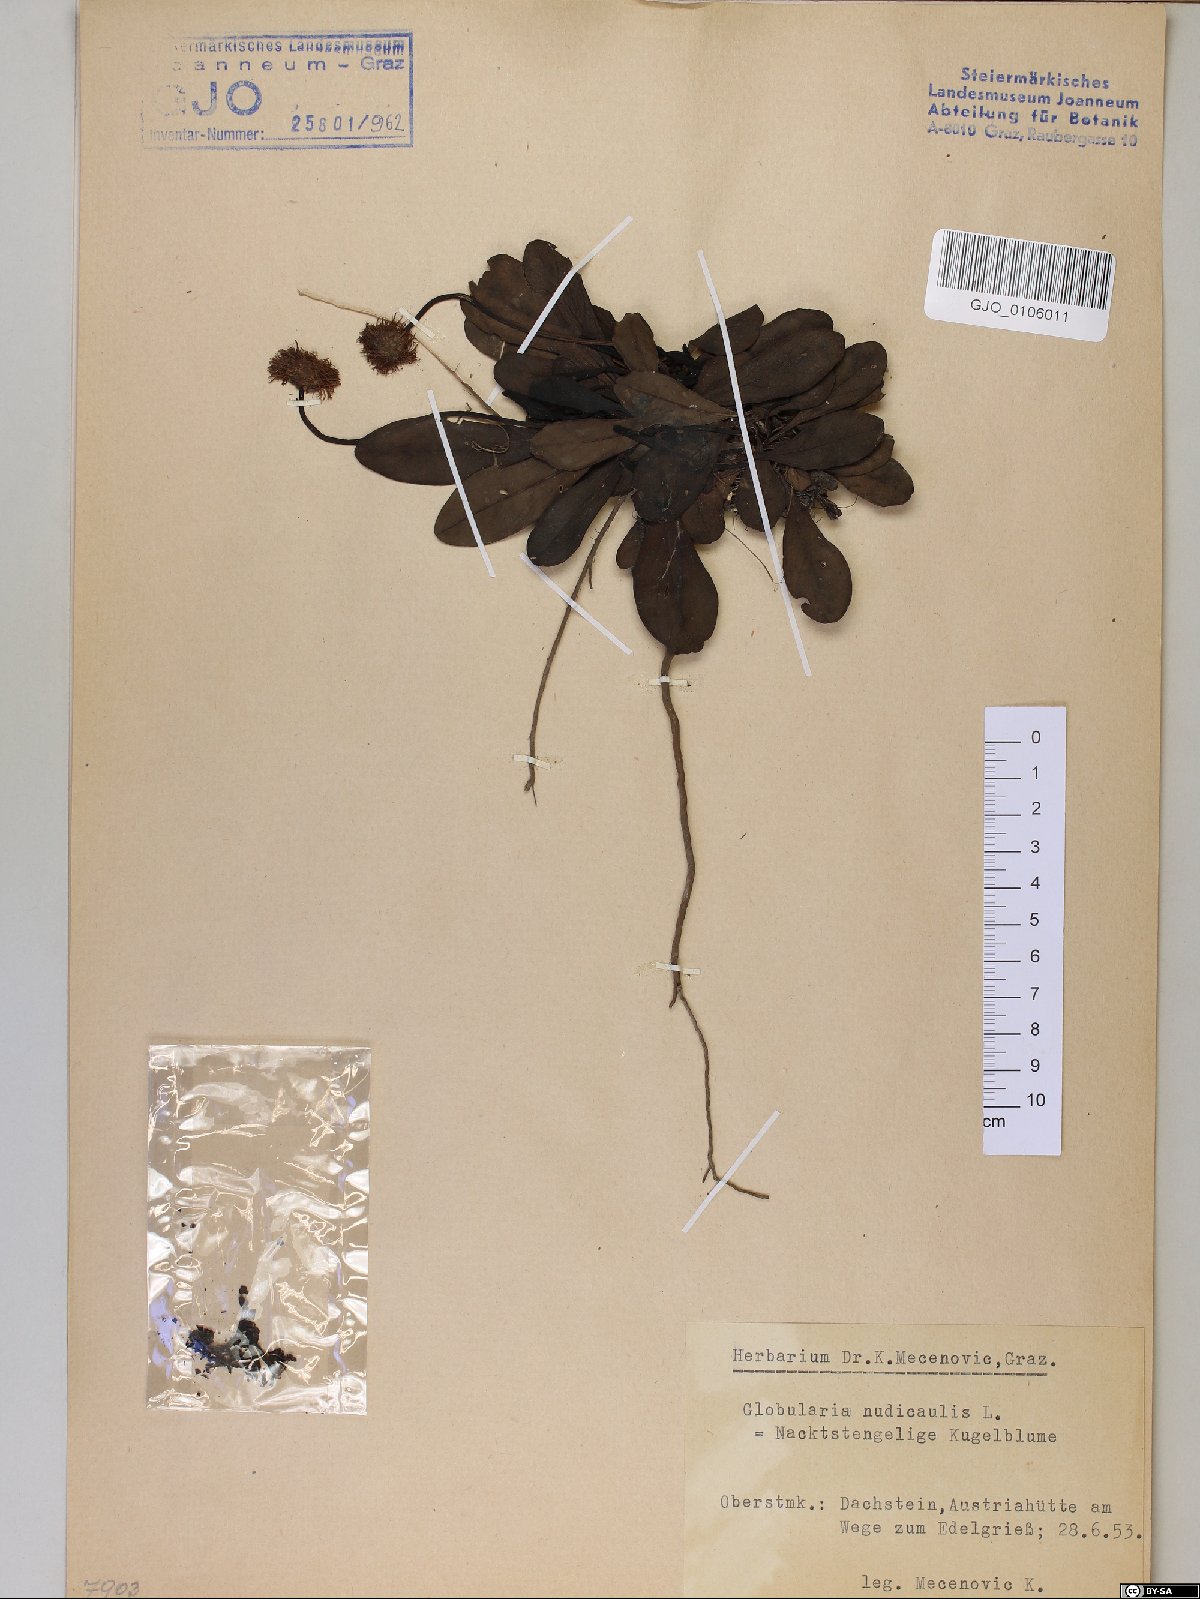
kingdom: Plantae
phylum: Tracheophyta
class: Magnoliopsida
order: Lamiales
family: Plantaginaceae
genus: Globularia
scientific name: Globularia nudicaulis
